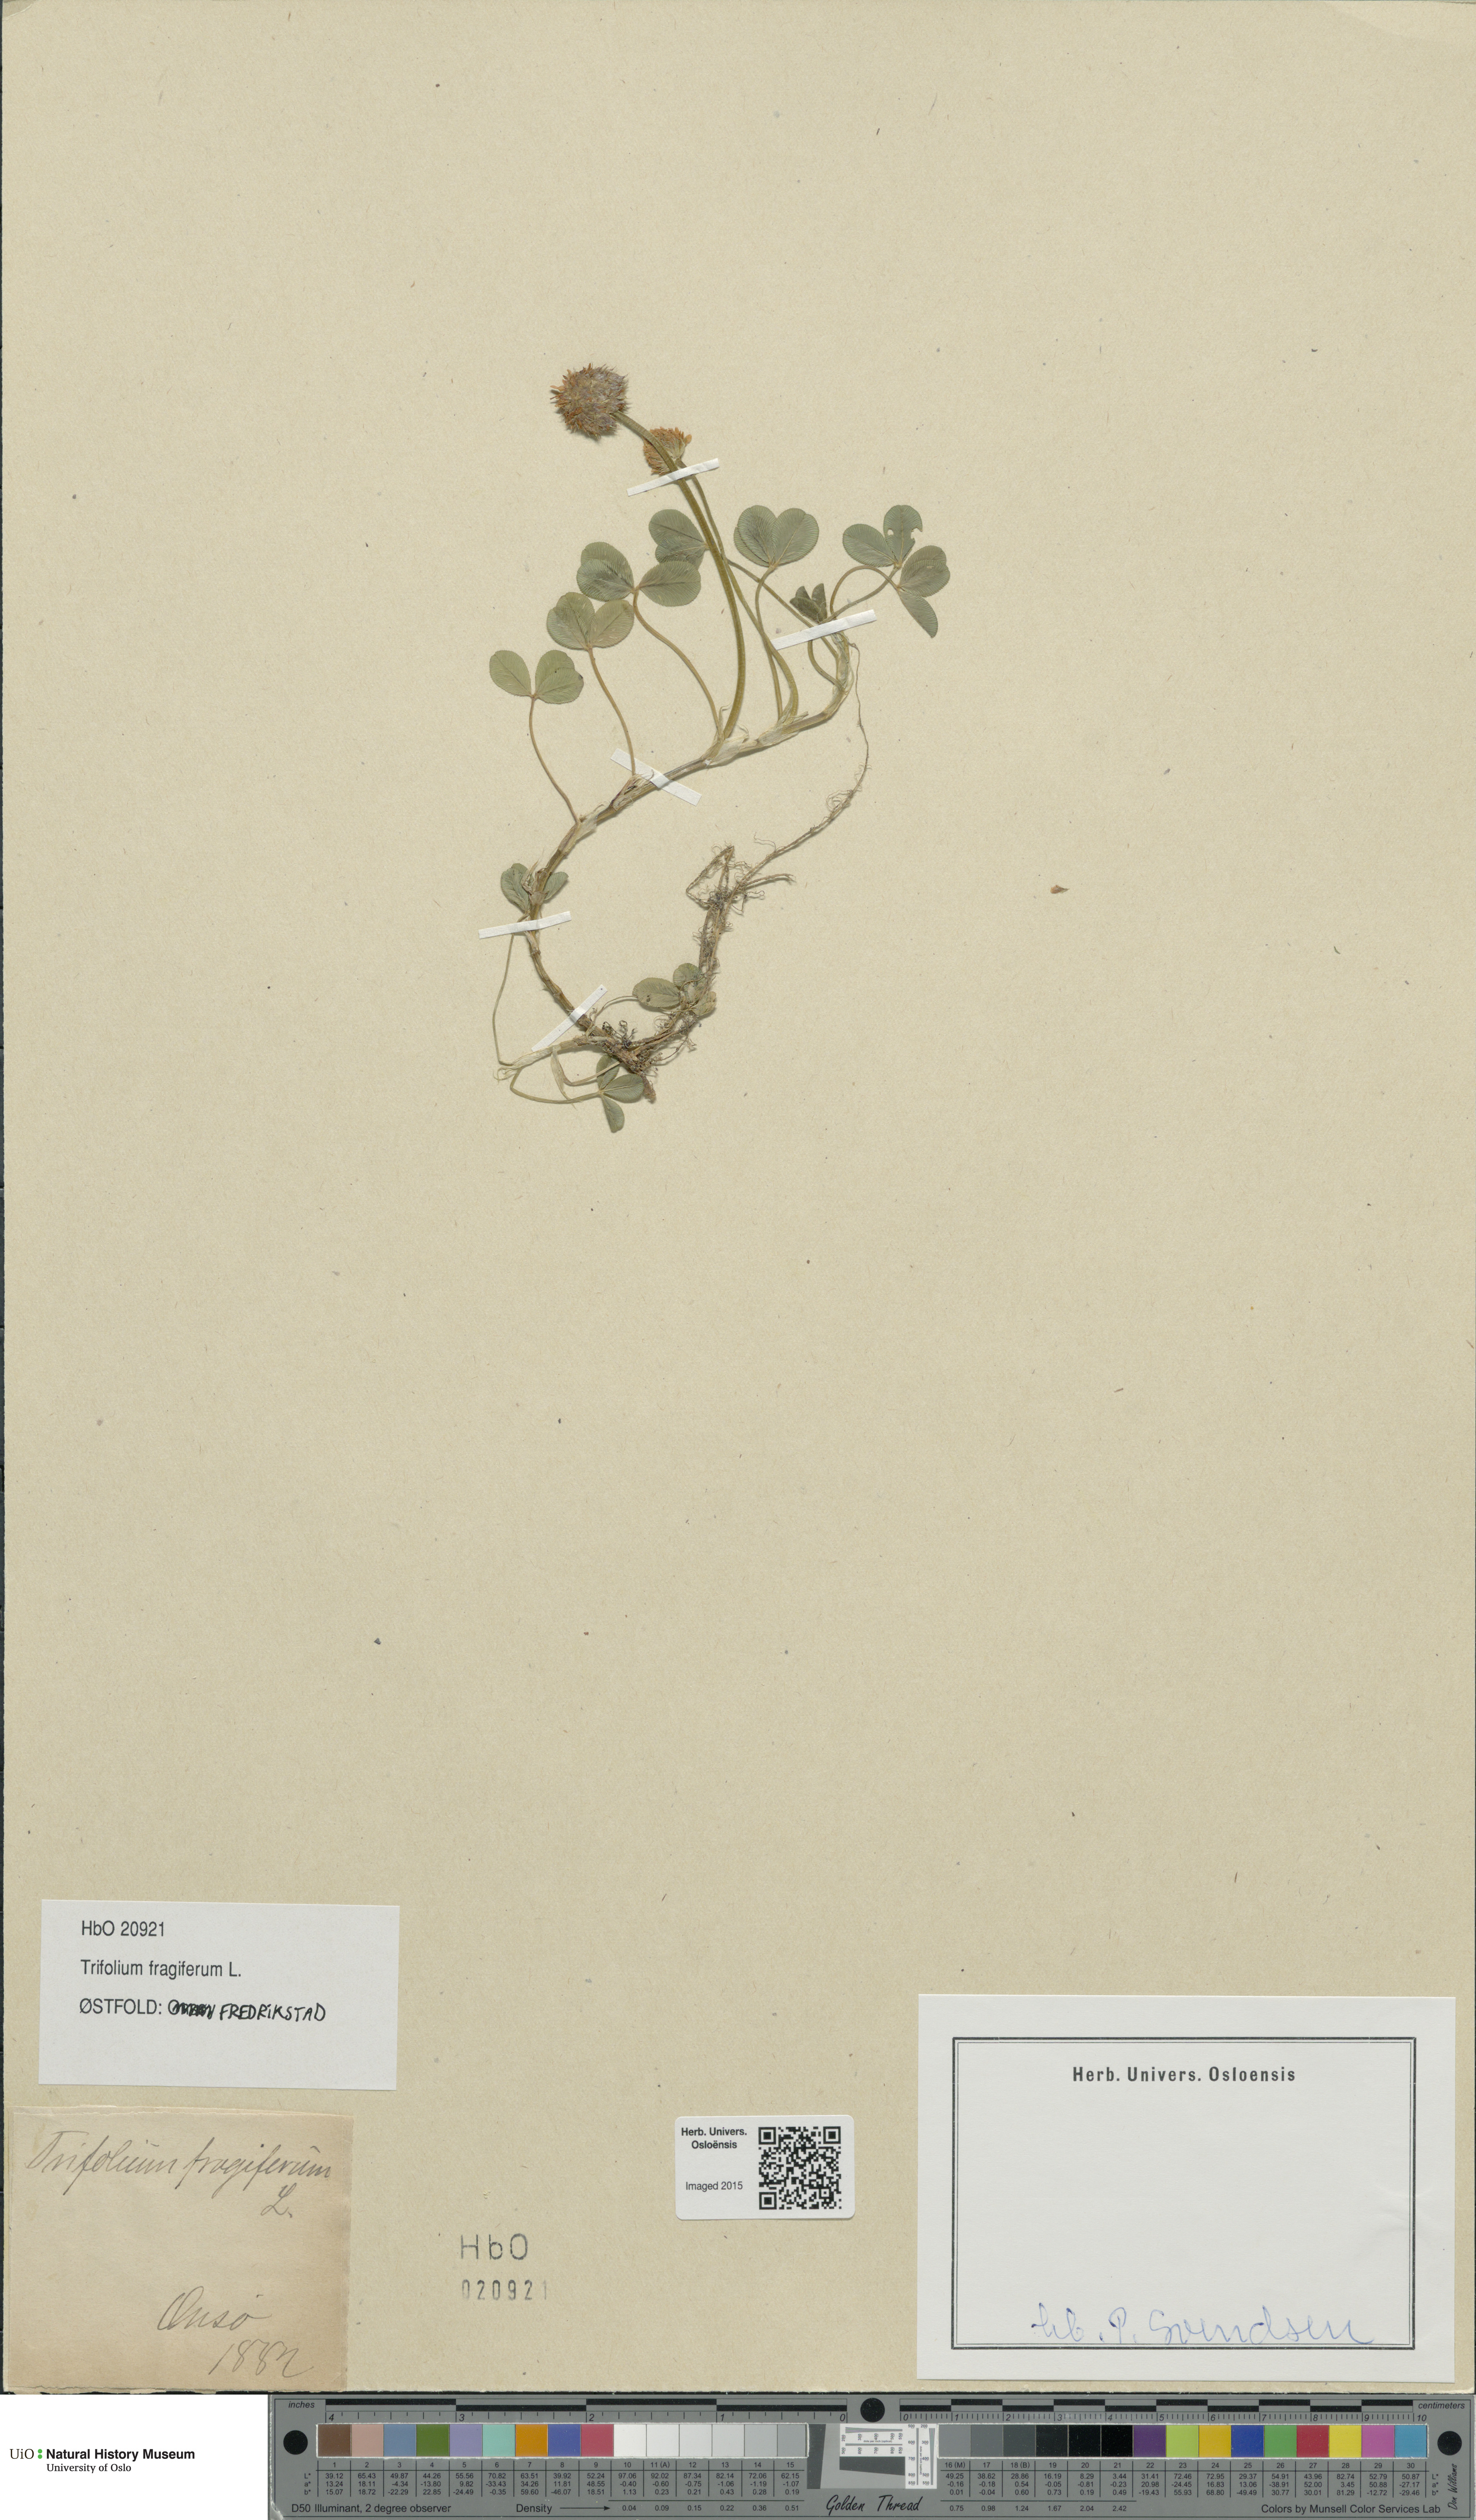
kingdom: Plantae
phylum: Tracheophyta
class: Magnoliopsida
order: Fabales
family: Fabaceae
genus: Trifolium
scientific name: Trifolium fragiferum
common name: Strawberry clover
